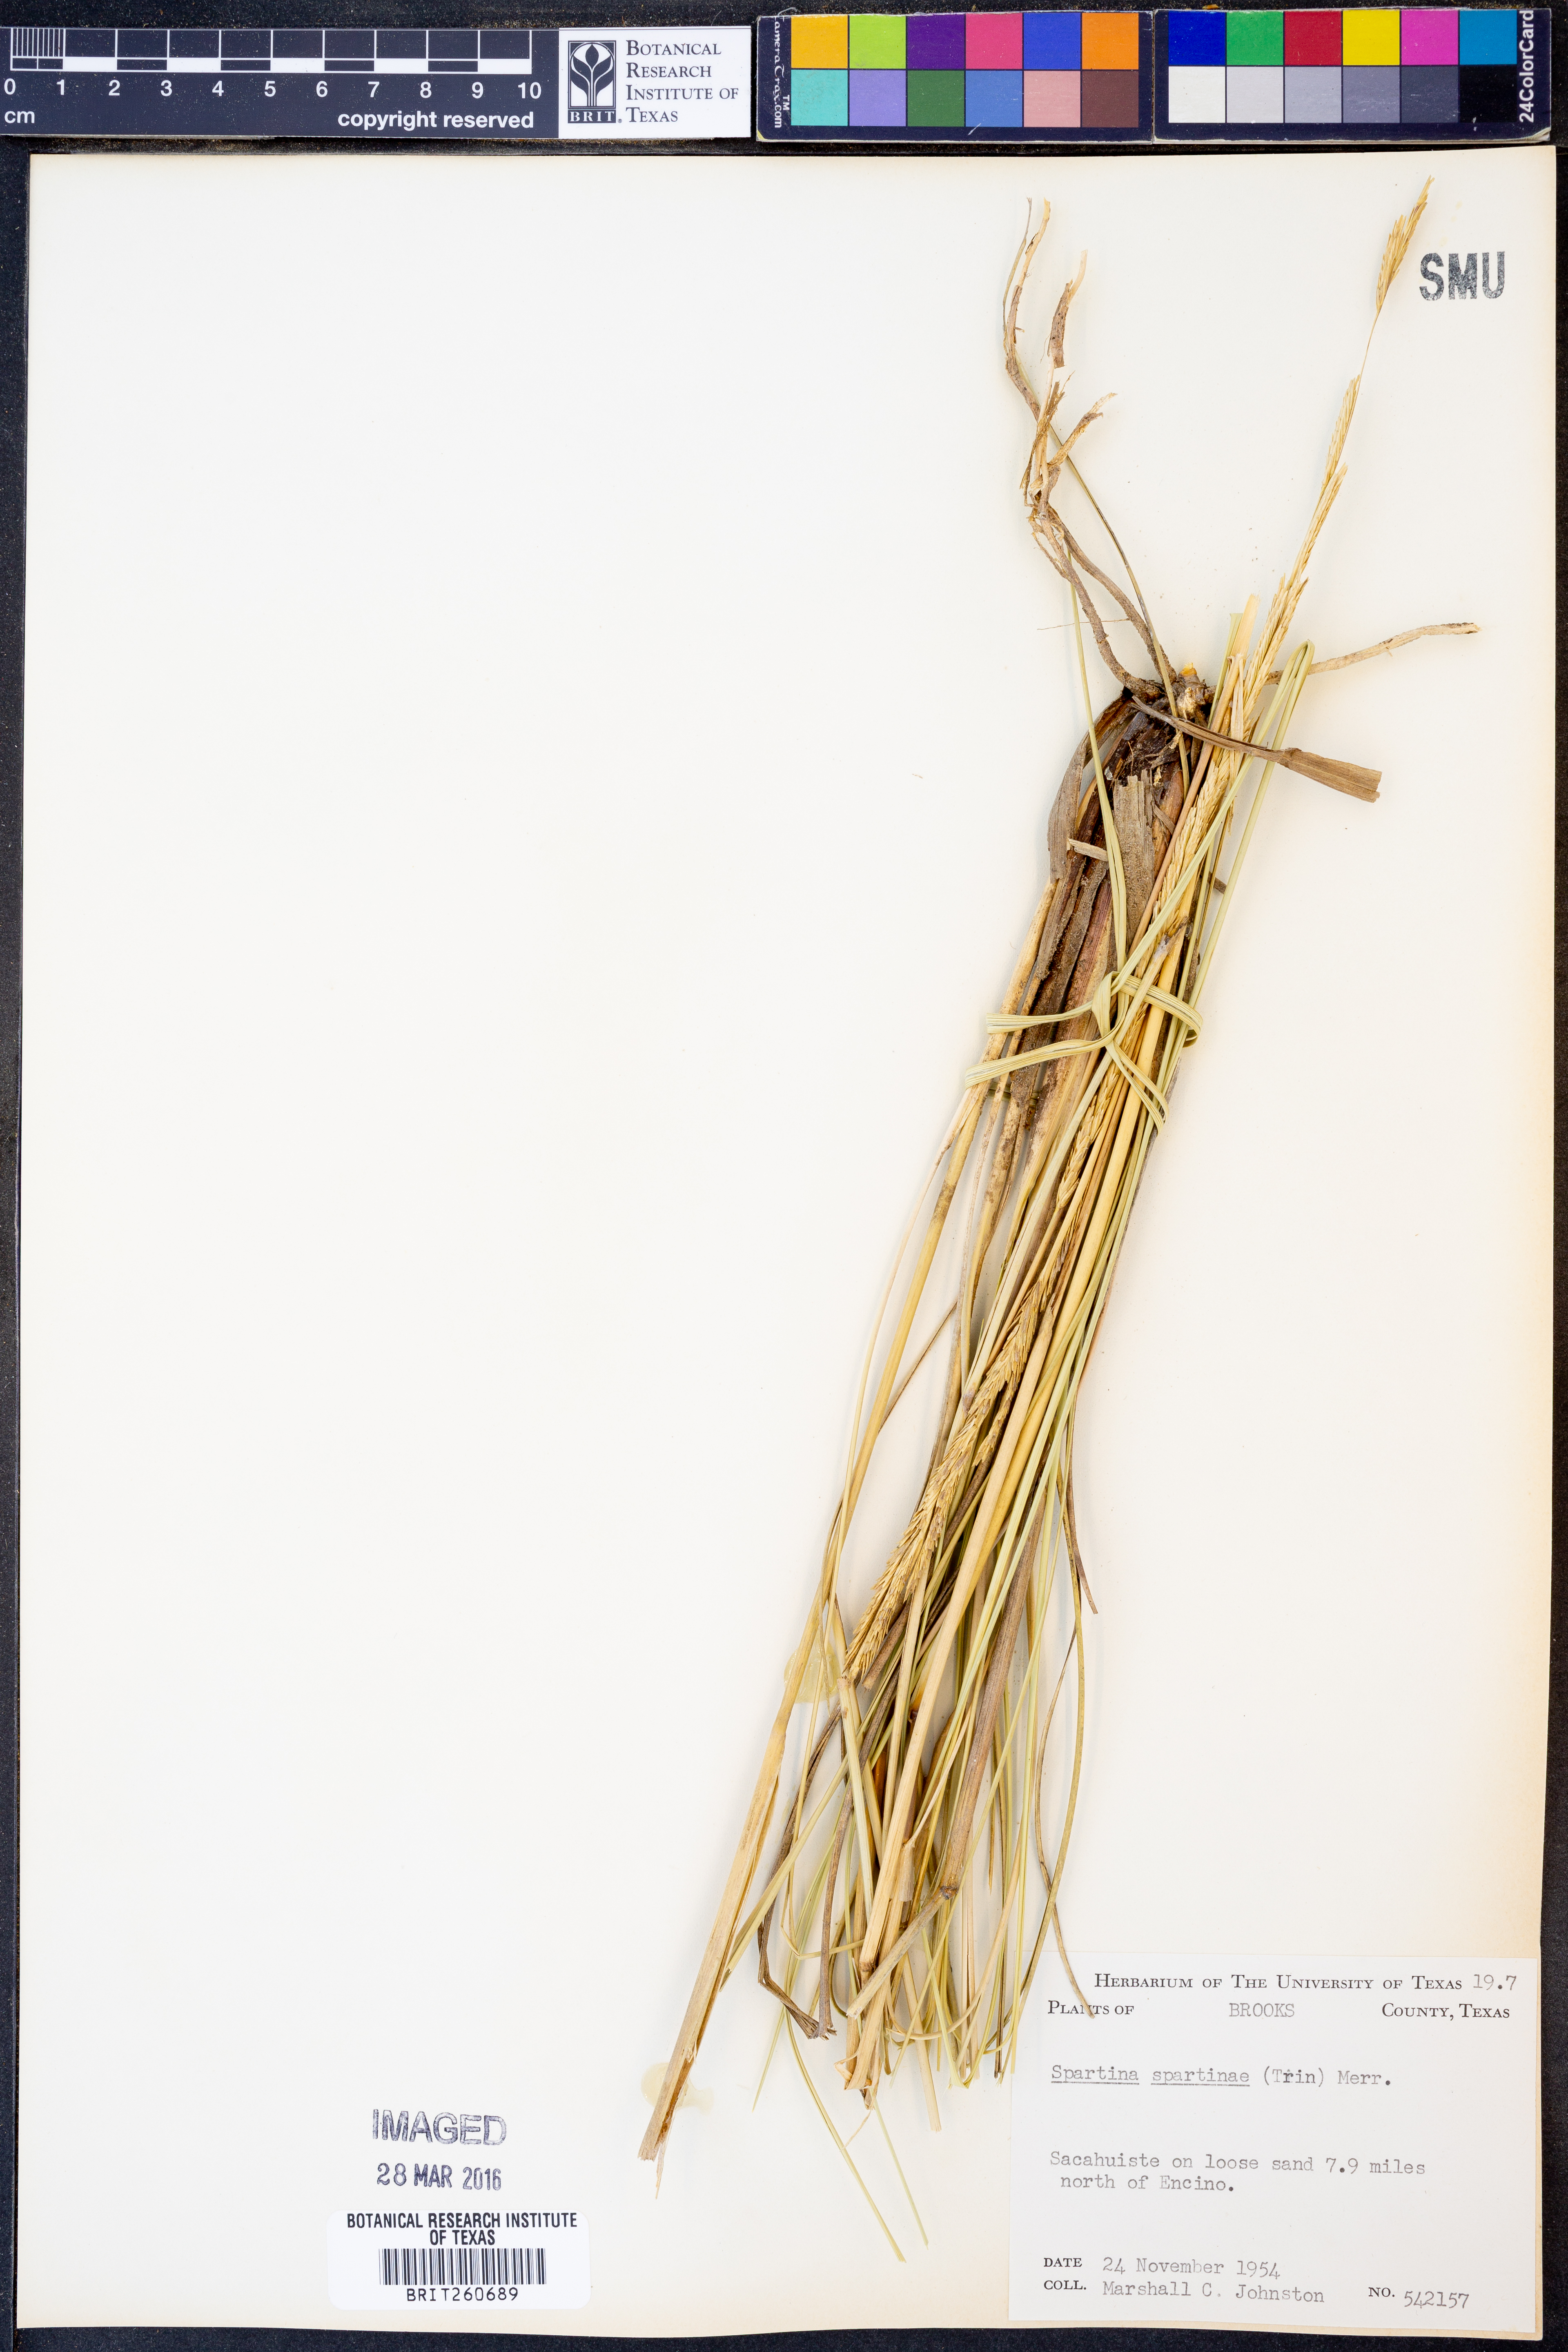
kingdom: Plantae
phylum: Tracheophyta
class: Liliopsida
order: Poales
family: Poaceae
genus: Sporobolus
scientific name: Sporobolus spartinae
